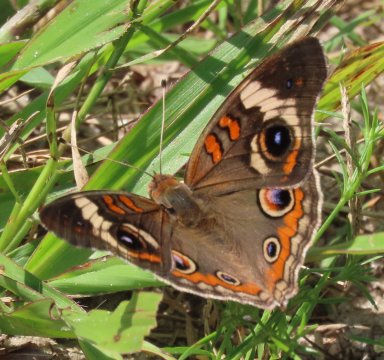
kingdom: Animalia
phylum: Arthropoda
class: Insecta
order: Lepidoptera
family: Nymphalidae
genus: Junonia
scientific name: Junonia coenia
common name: Common Buckeye
